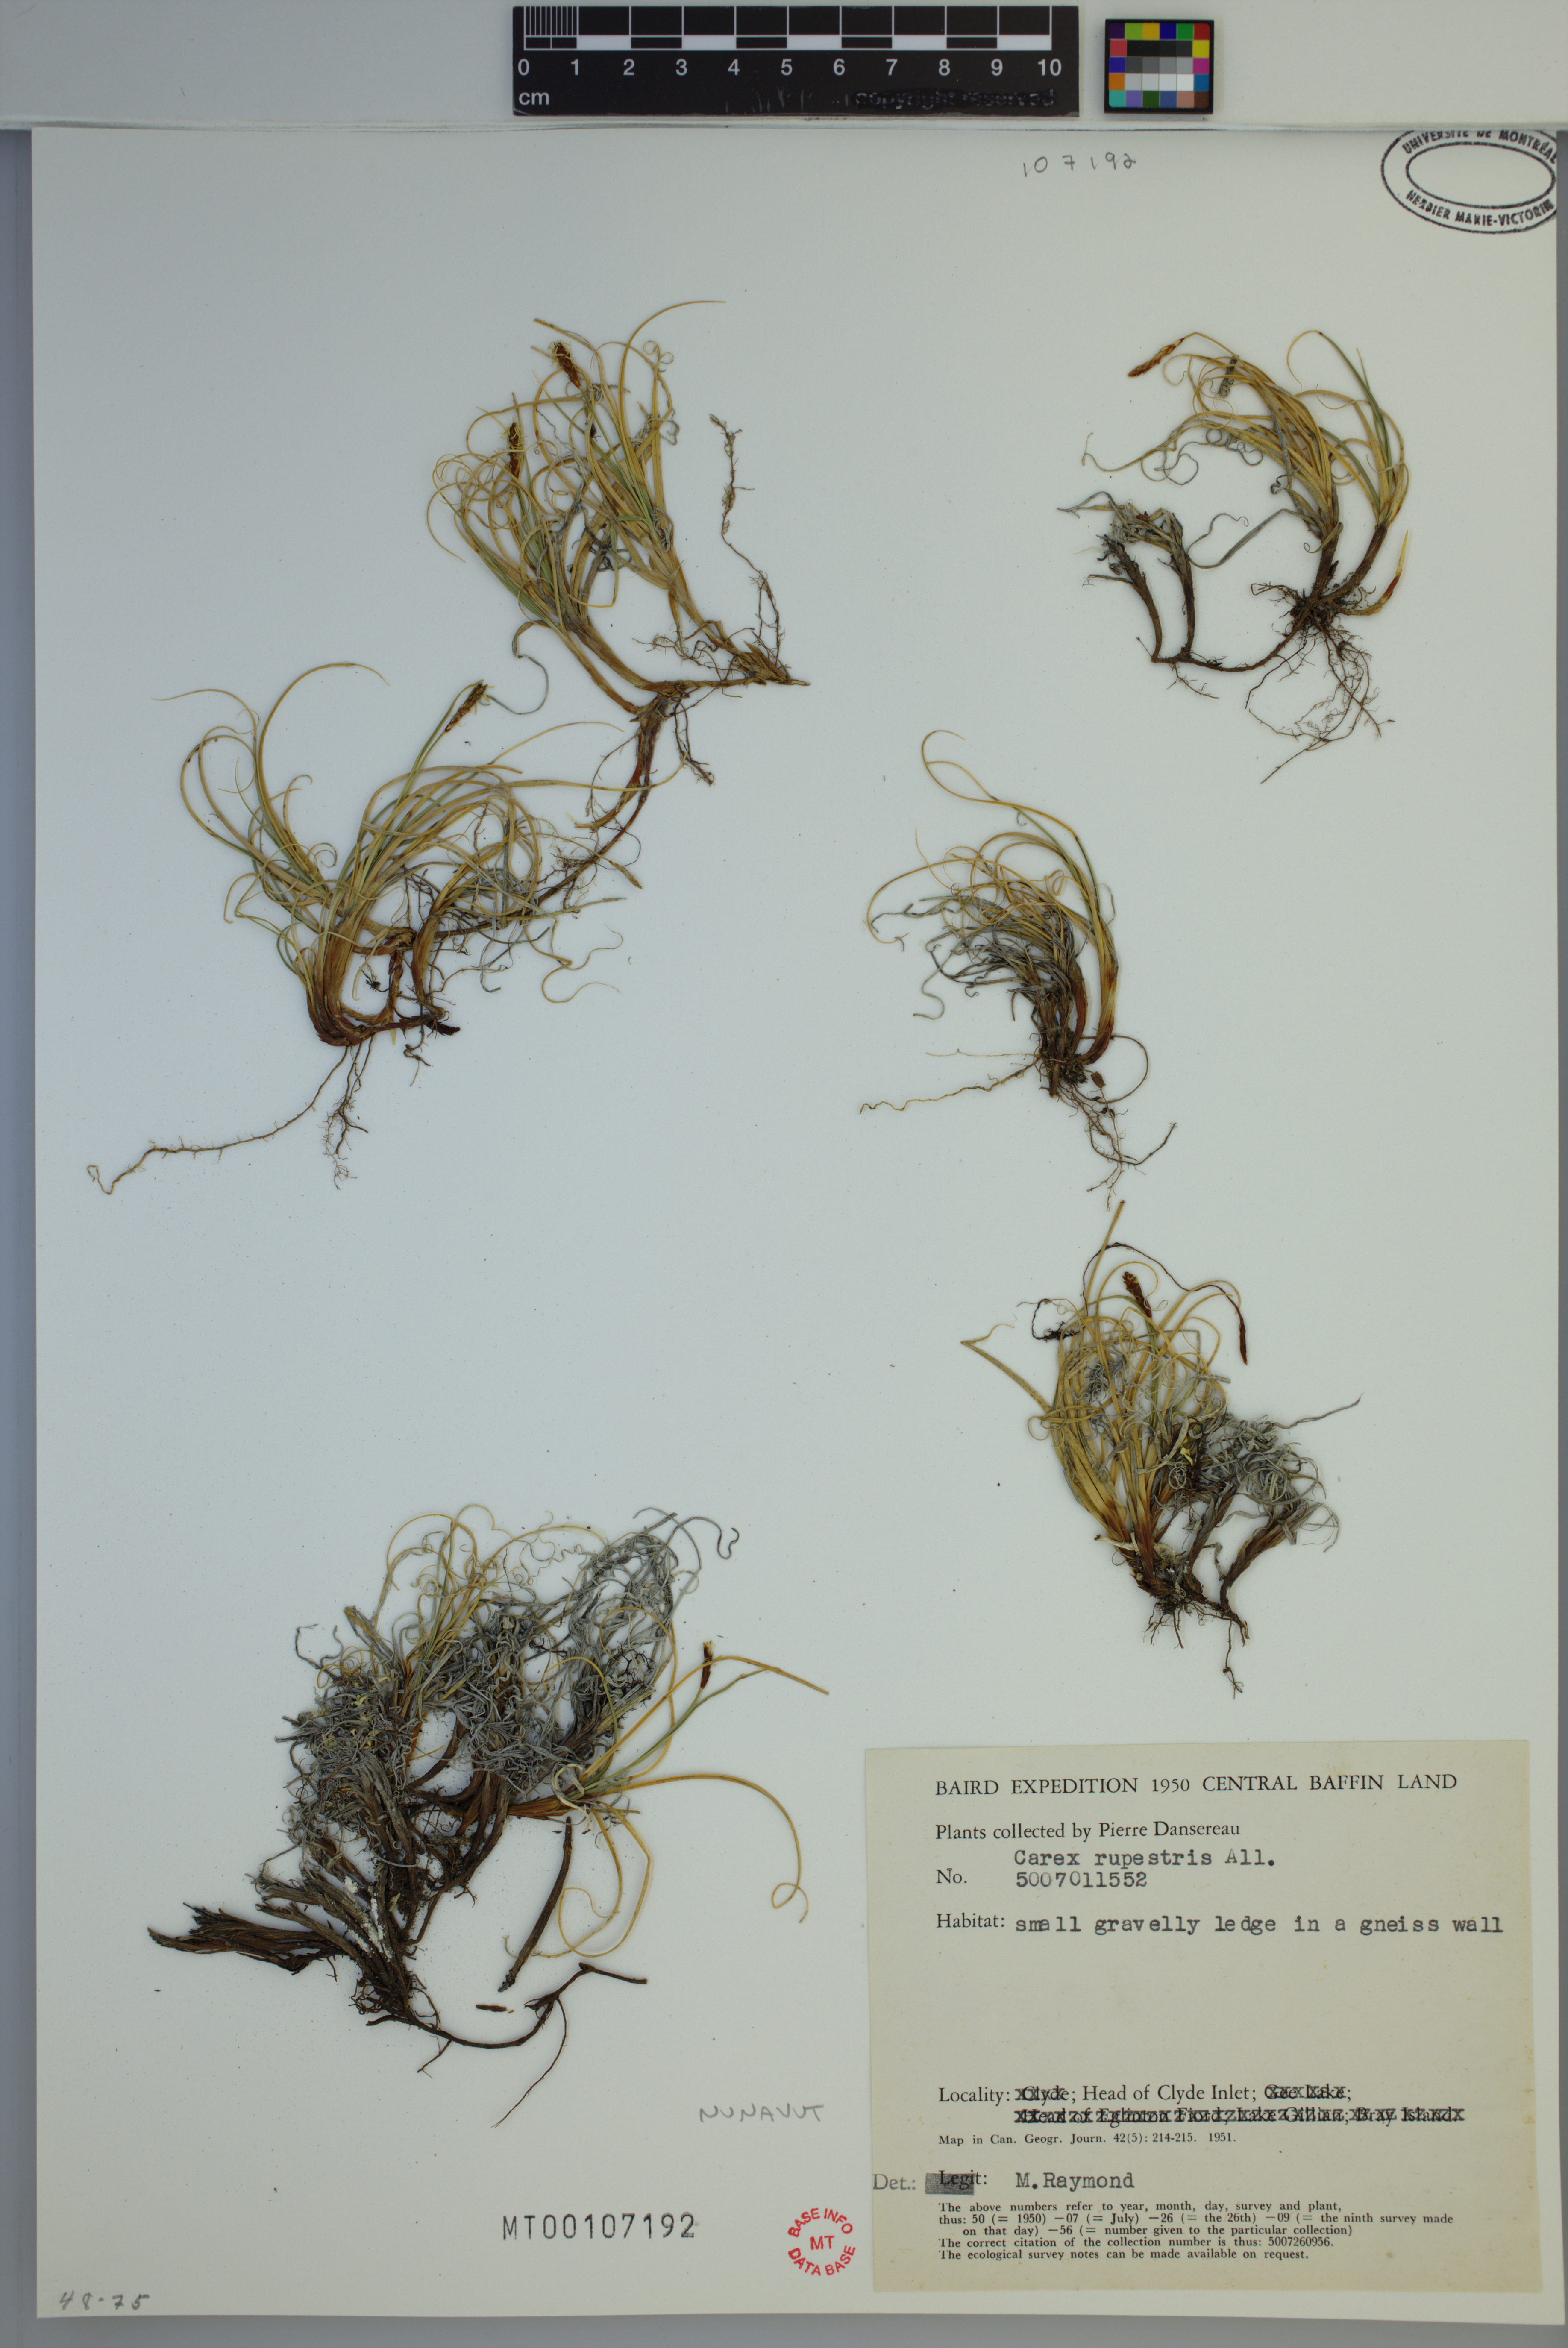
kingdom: Plantae
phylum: Tracheophyta
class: Liliopsida
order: Poales
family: Cyperaceae
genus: Carex
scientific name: Carex rupestris
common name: Rock sedge
